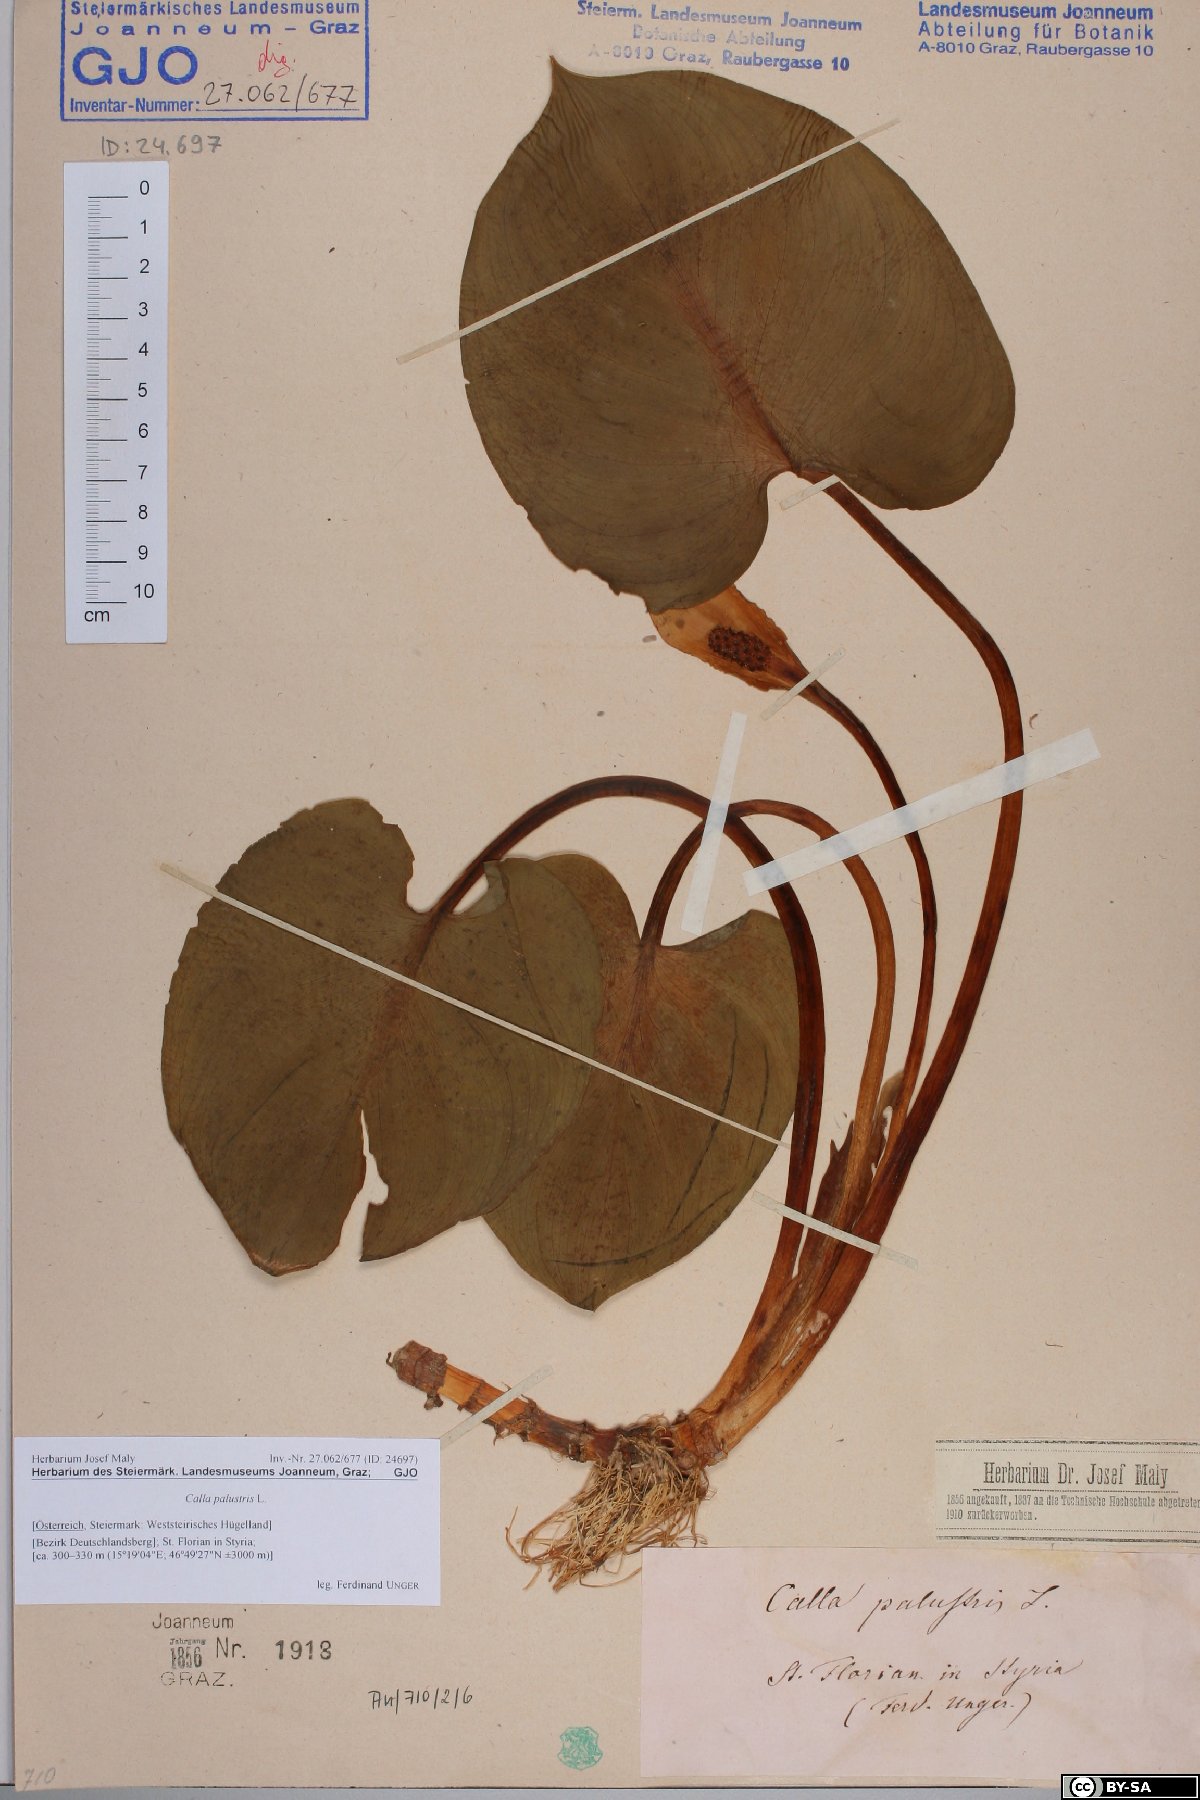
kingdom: Plantae
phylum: Tracheophyta
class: Liliopsida
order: Alismatales
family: Araceae
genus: Calla
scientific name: Calla palustris
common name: Bog arum
